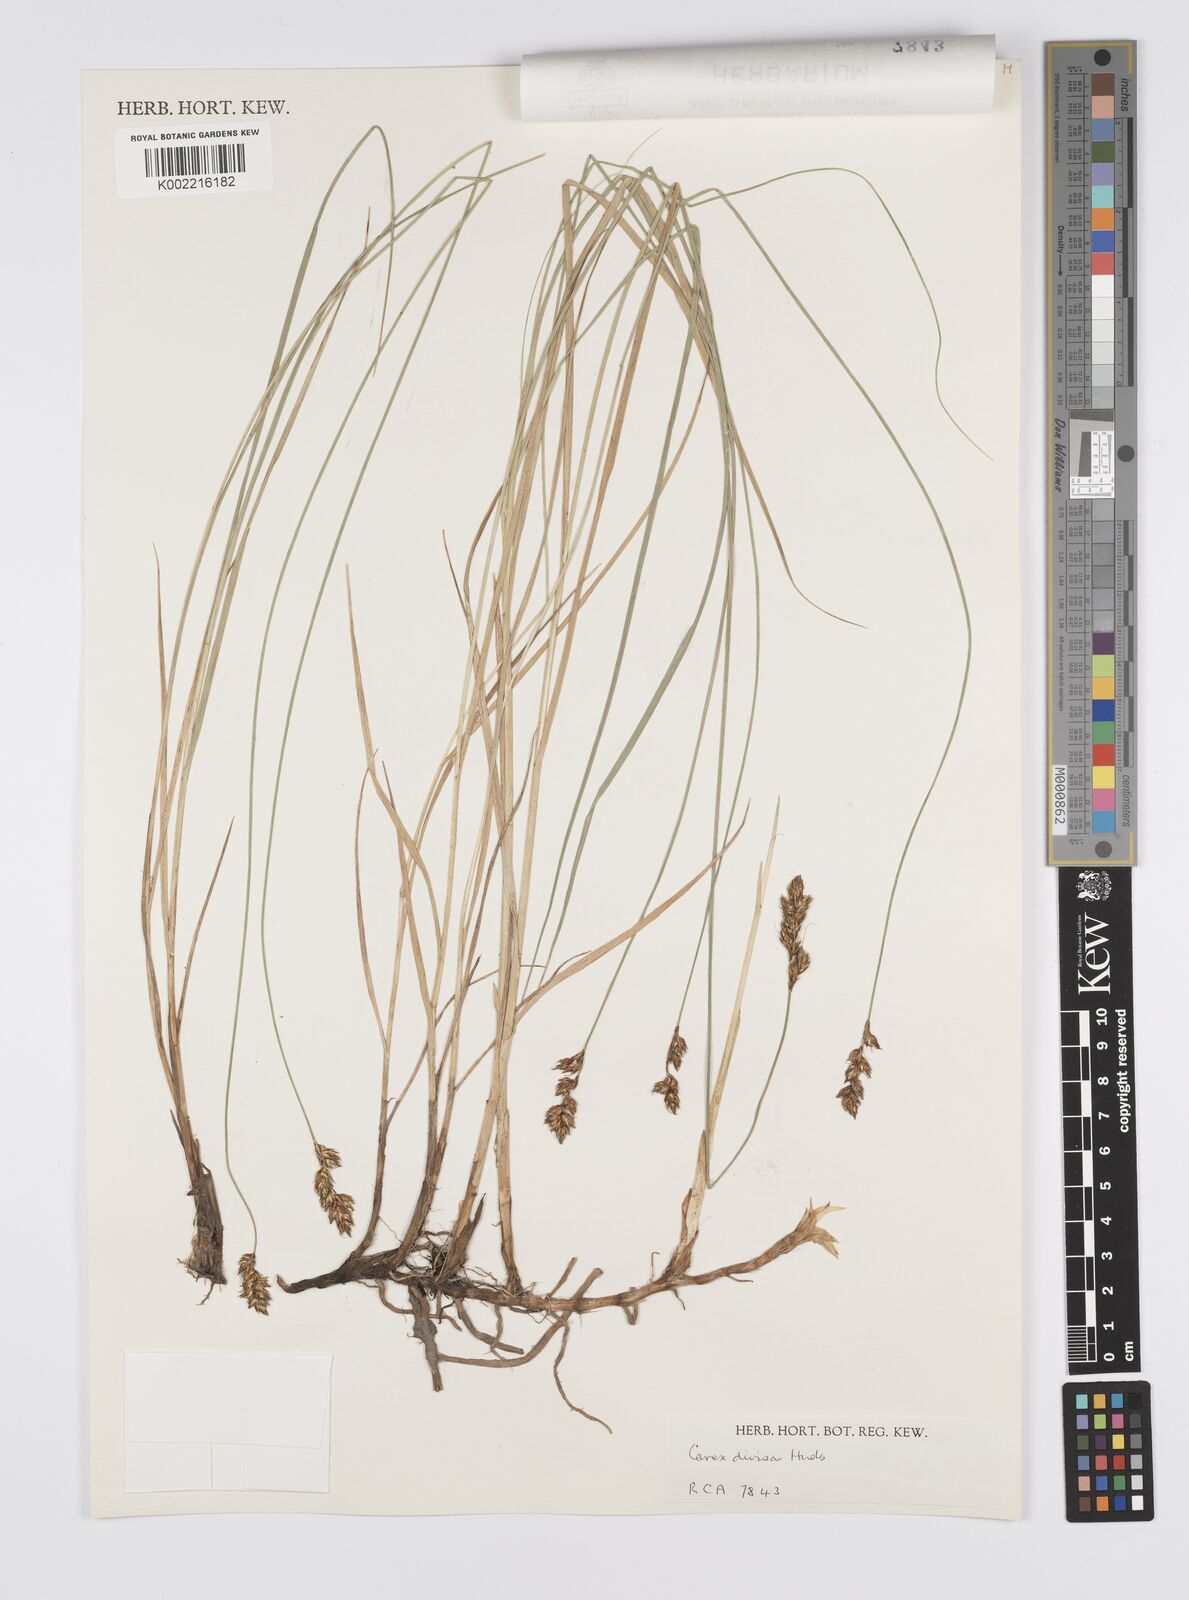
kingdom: Plantae
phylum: Tracheophyta
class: Liliopsida
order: Poales
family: Cyperaceae
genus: Carex
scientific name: Carex divisa
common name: Divided sedge
